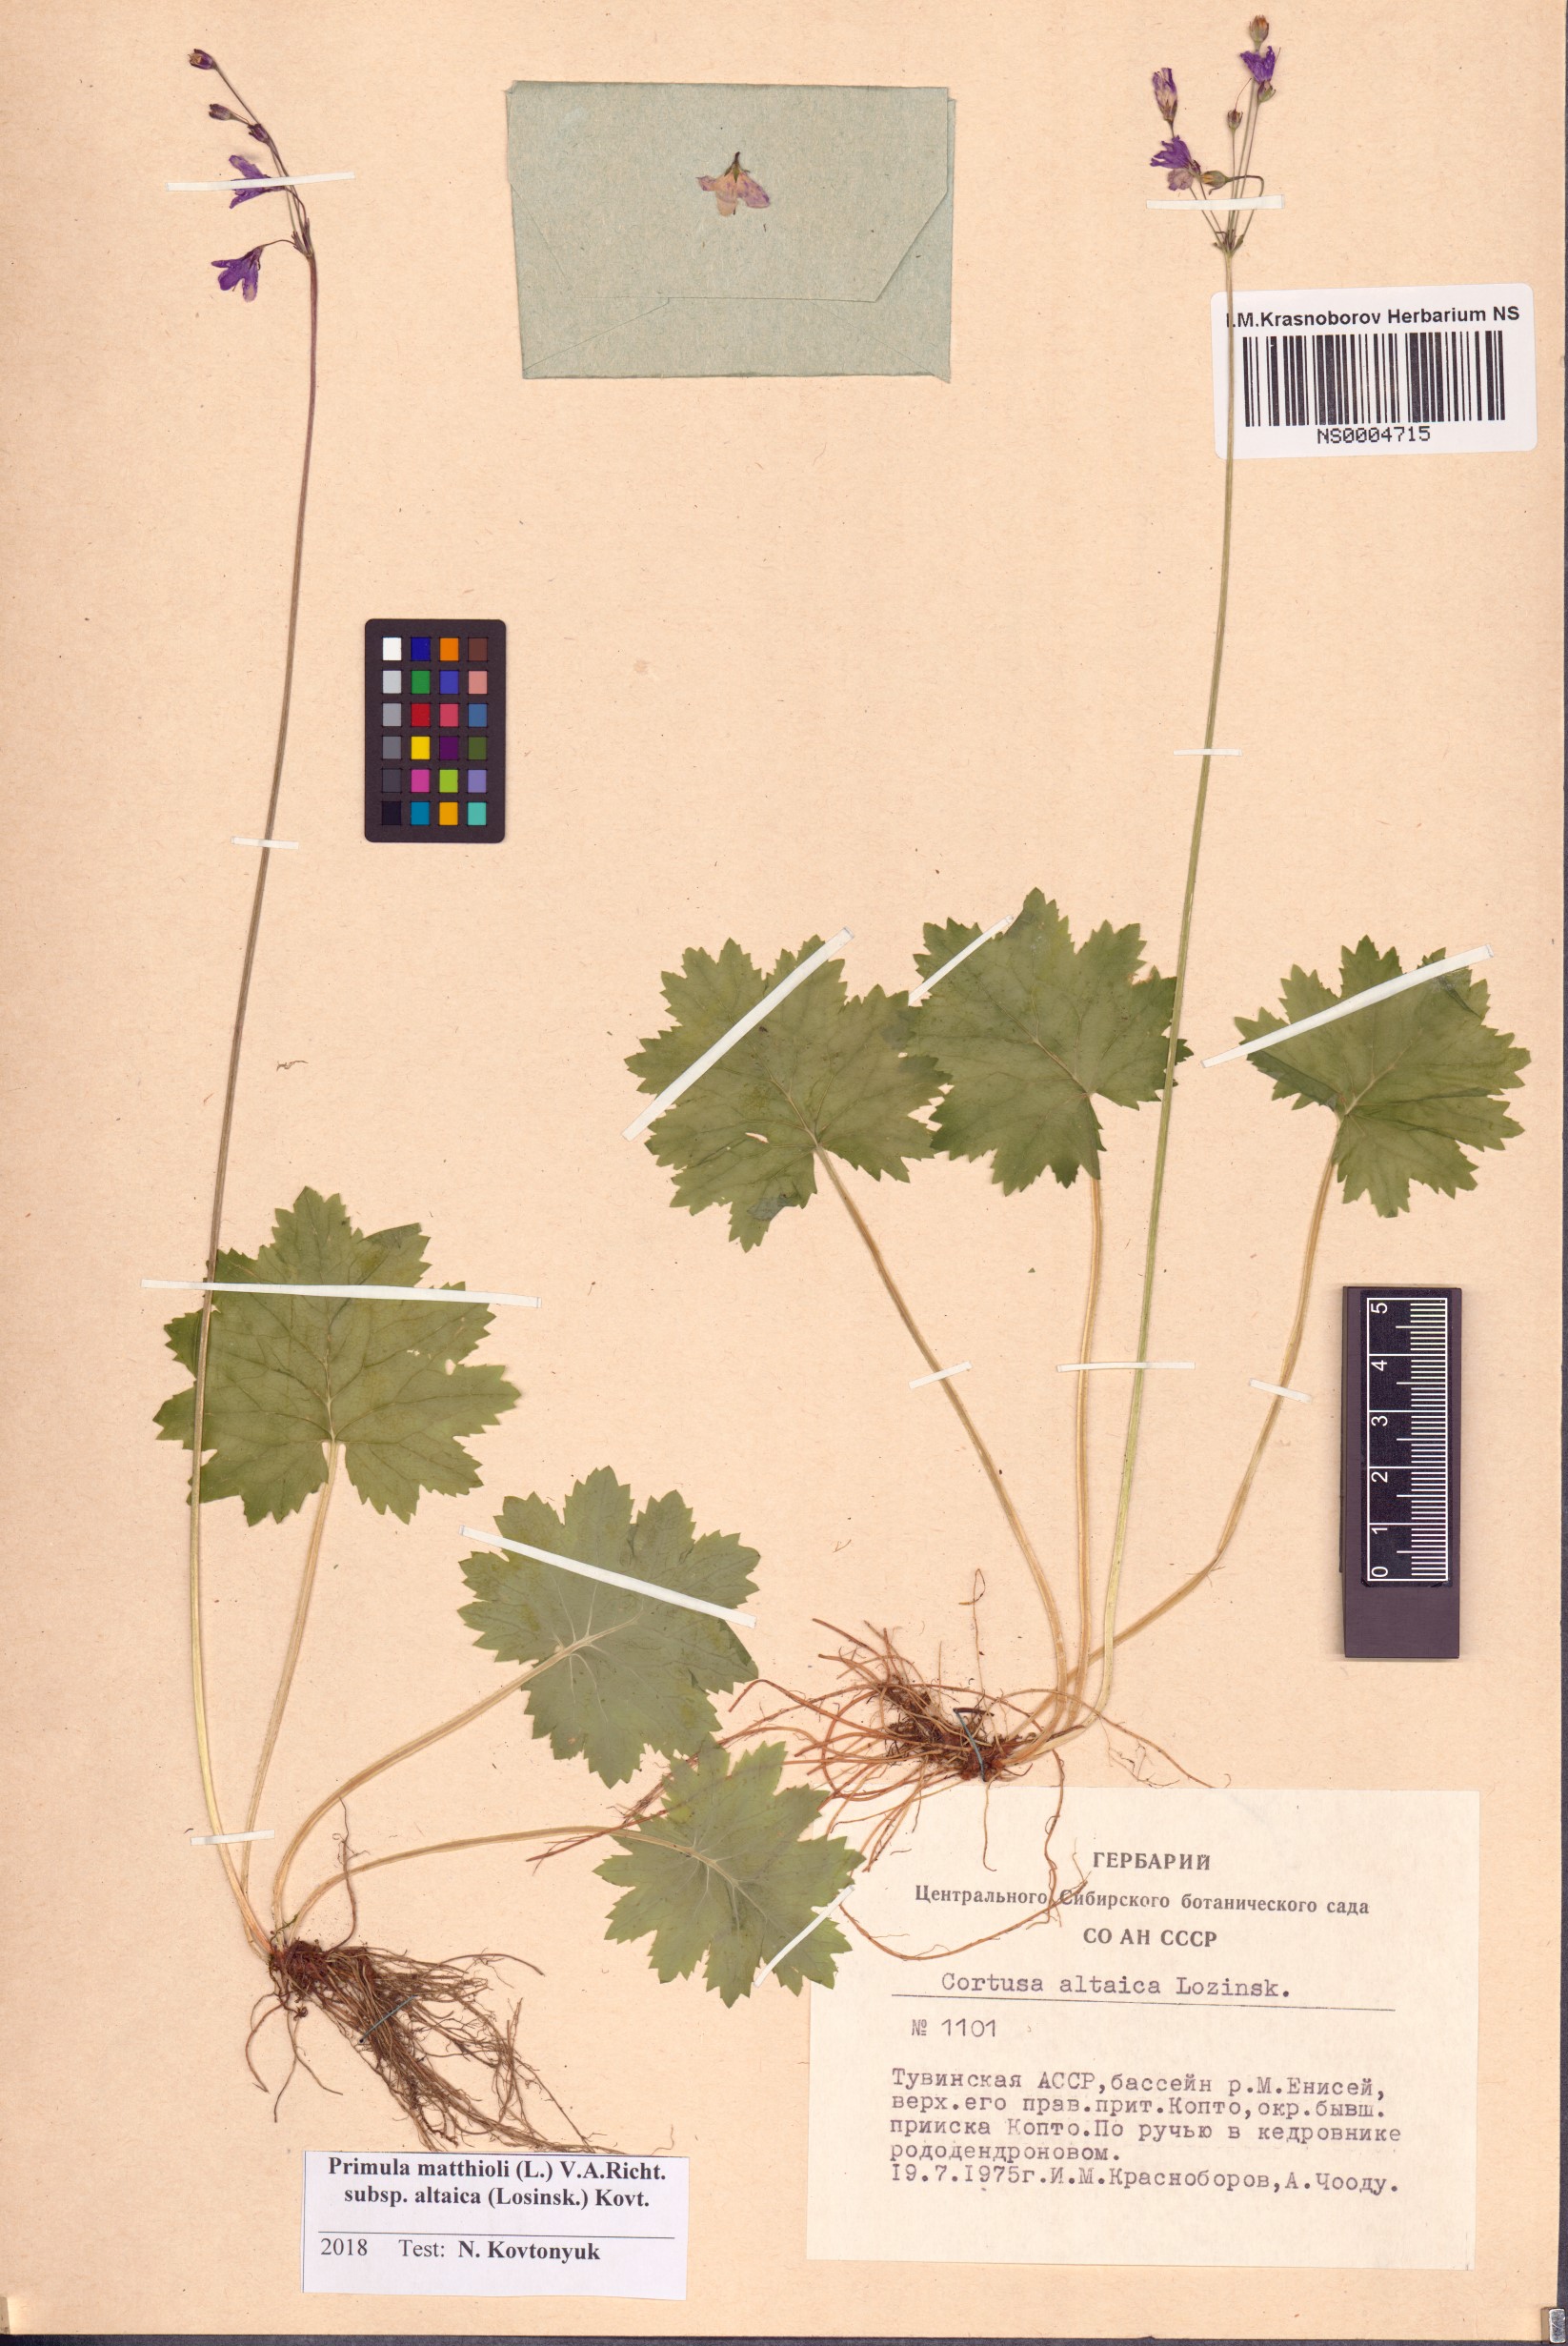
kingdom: Plantae
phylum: Tracheophyta
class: Magnoliopsida
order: Ericales
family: Primulaceae
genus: Primula
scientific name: Primula matthioli
